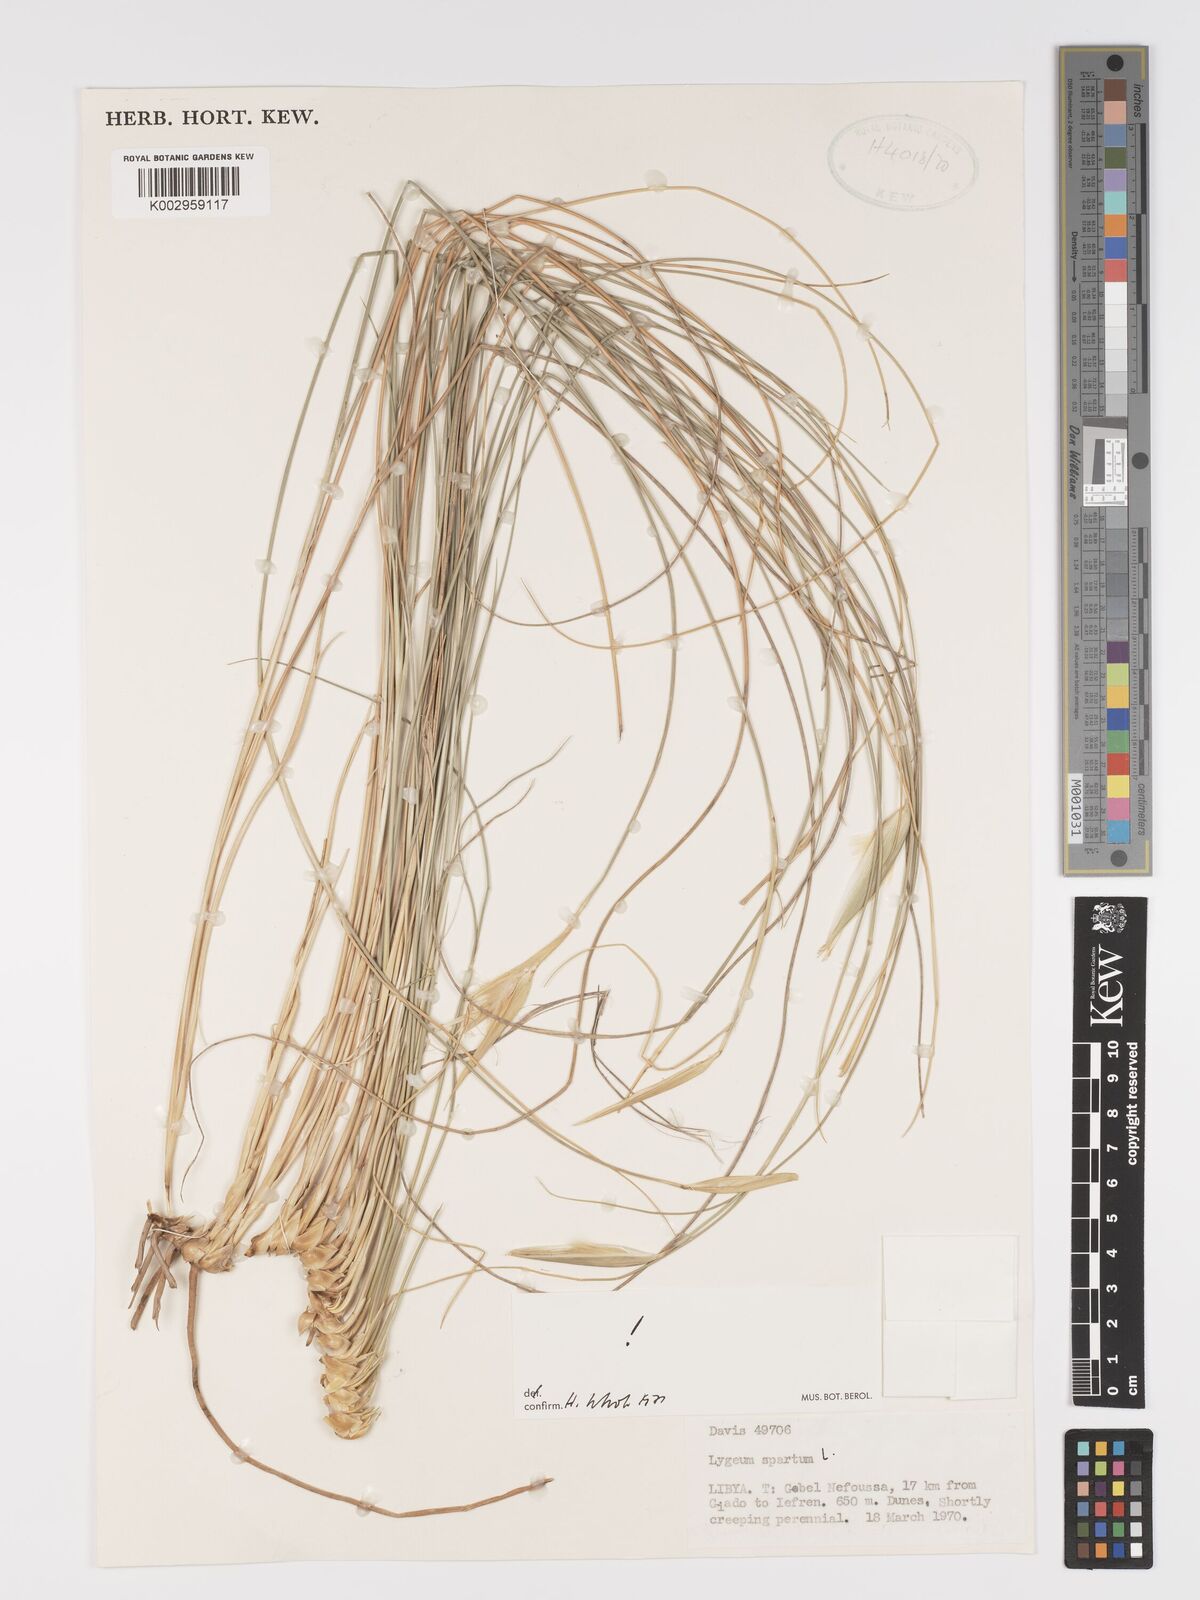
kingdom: Plantae
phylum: Tracheophyta
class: Liliopsida
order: Poales
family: Poaceae
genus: Lygeum
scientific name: Lygeum spartum
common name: Albardine
